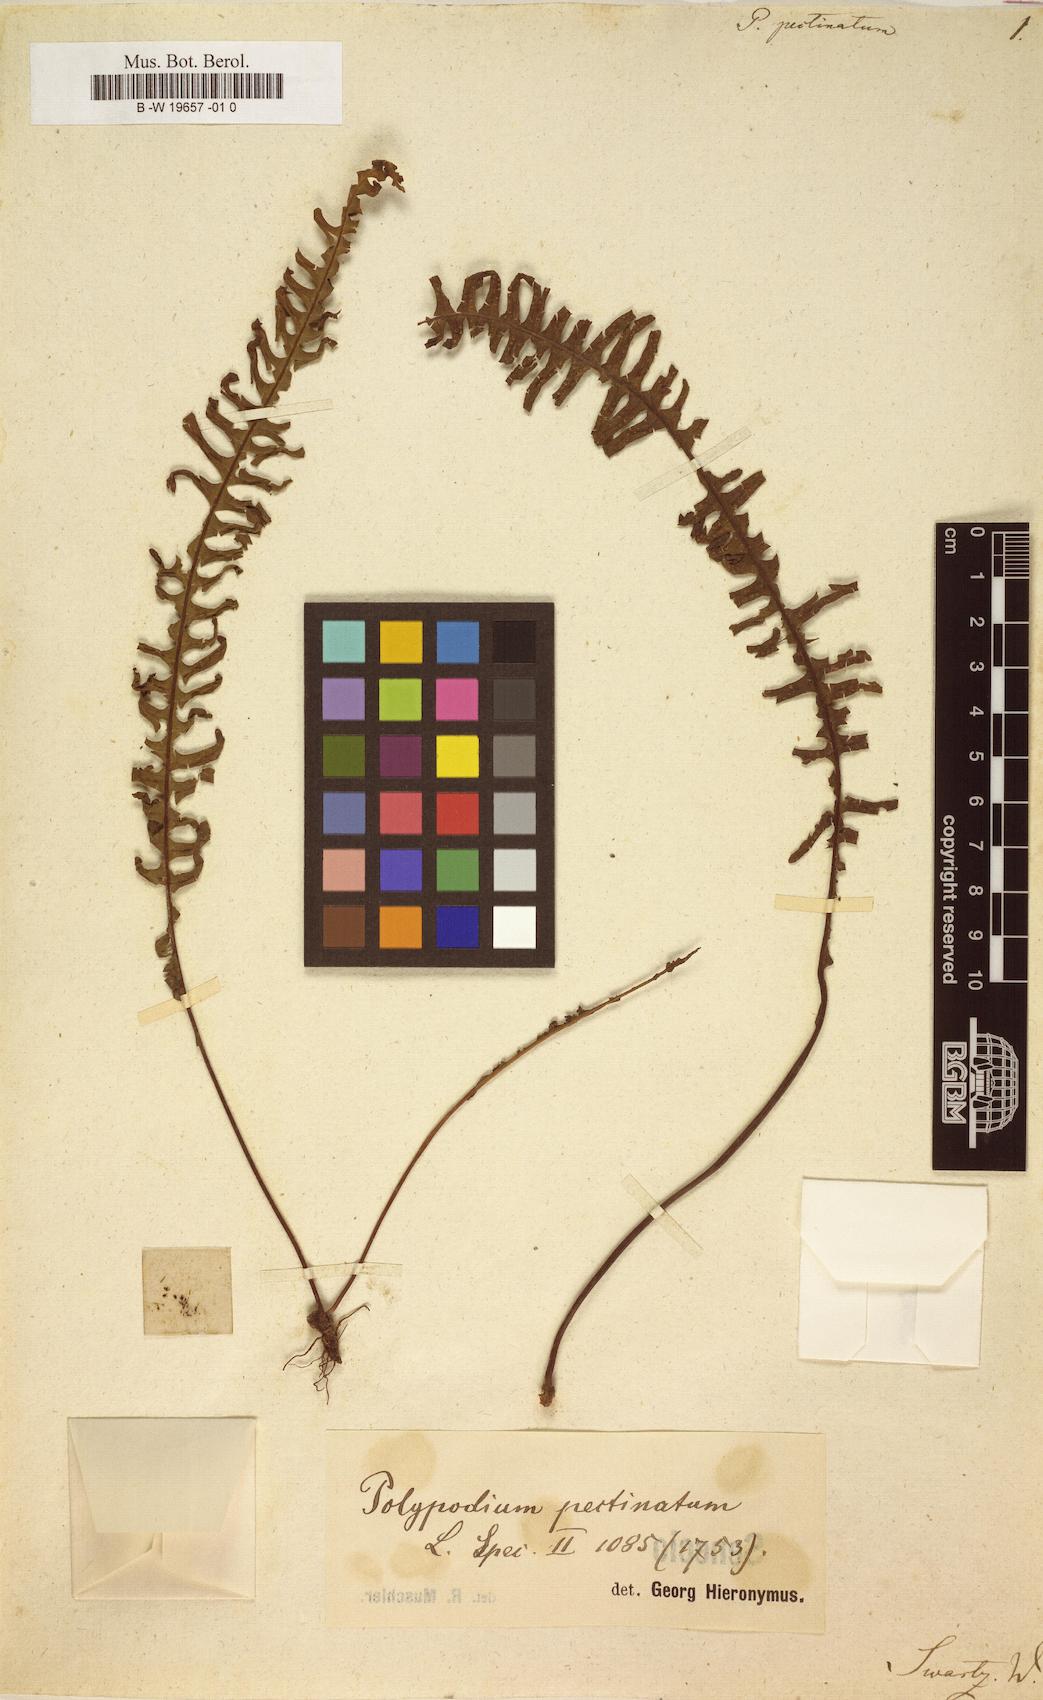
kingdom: Plantae
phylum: Tracheophyta
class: Polypodiopsida
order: Polypodiales
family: Polypodiaceae
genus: Pecluma
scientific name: Pecluma
